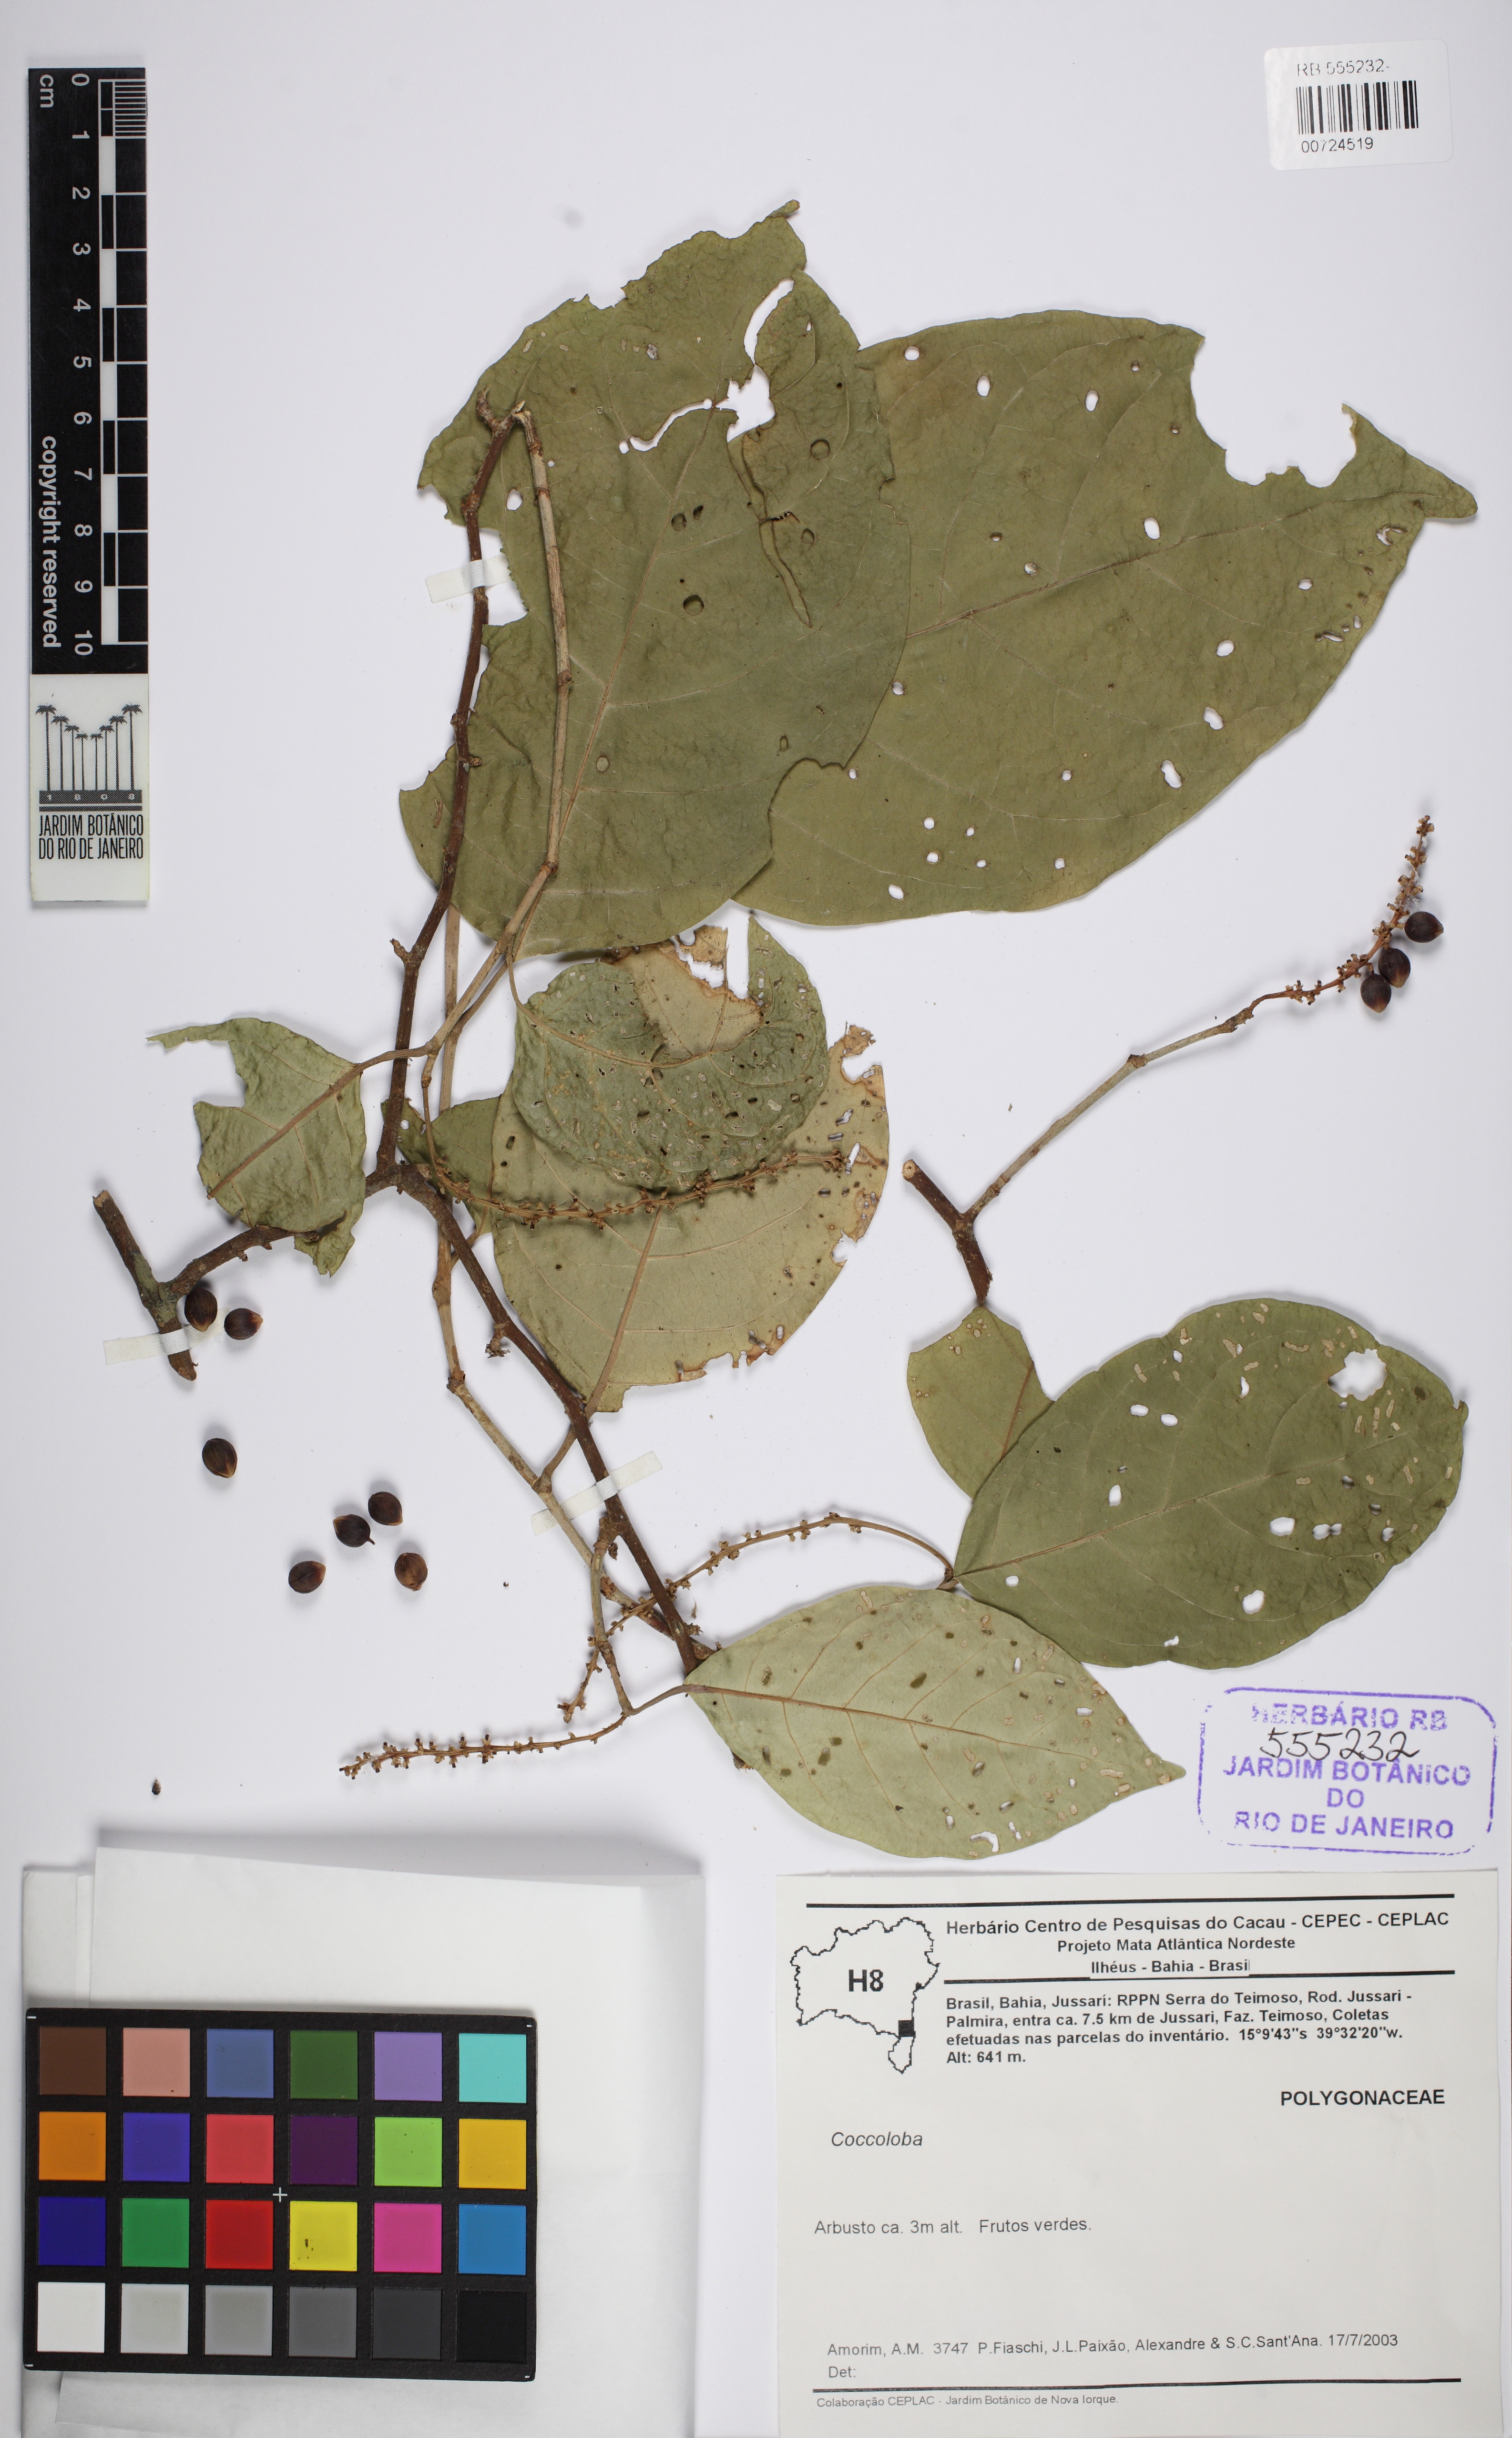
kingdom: Plantae
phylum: Tracheophyta
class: Magnoliopsida
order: Caryophyllales
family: Polygonaceae
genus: Coccoloba
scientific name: Coccoloba
